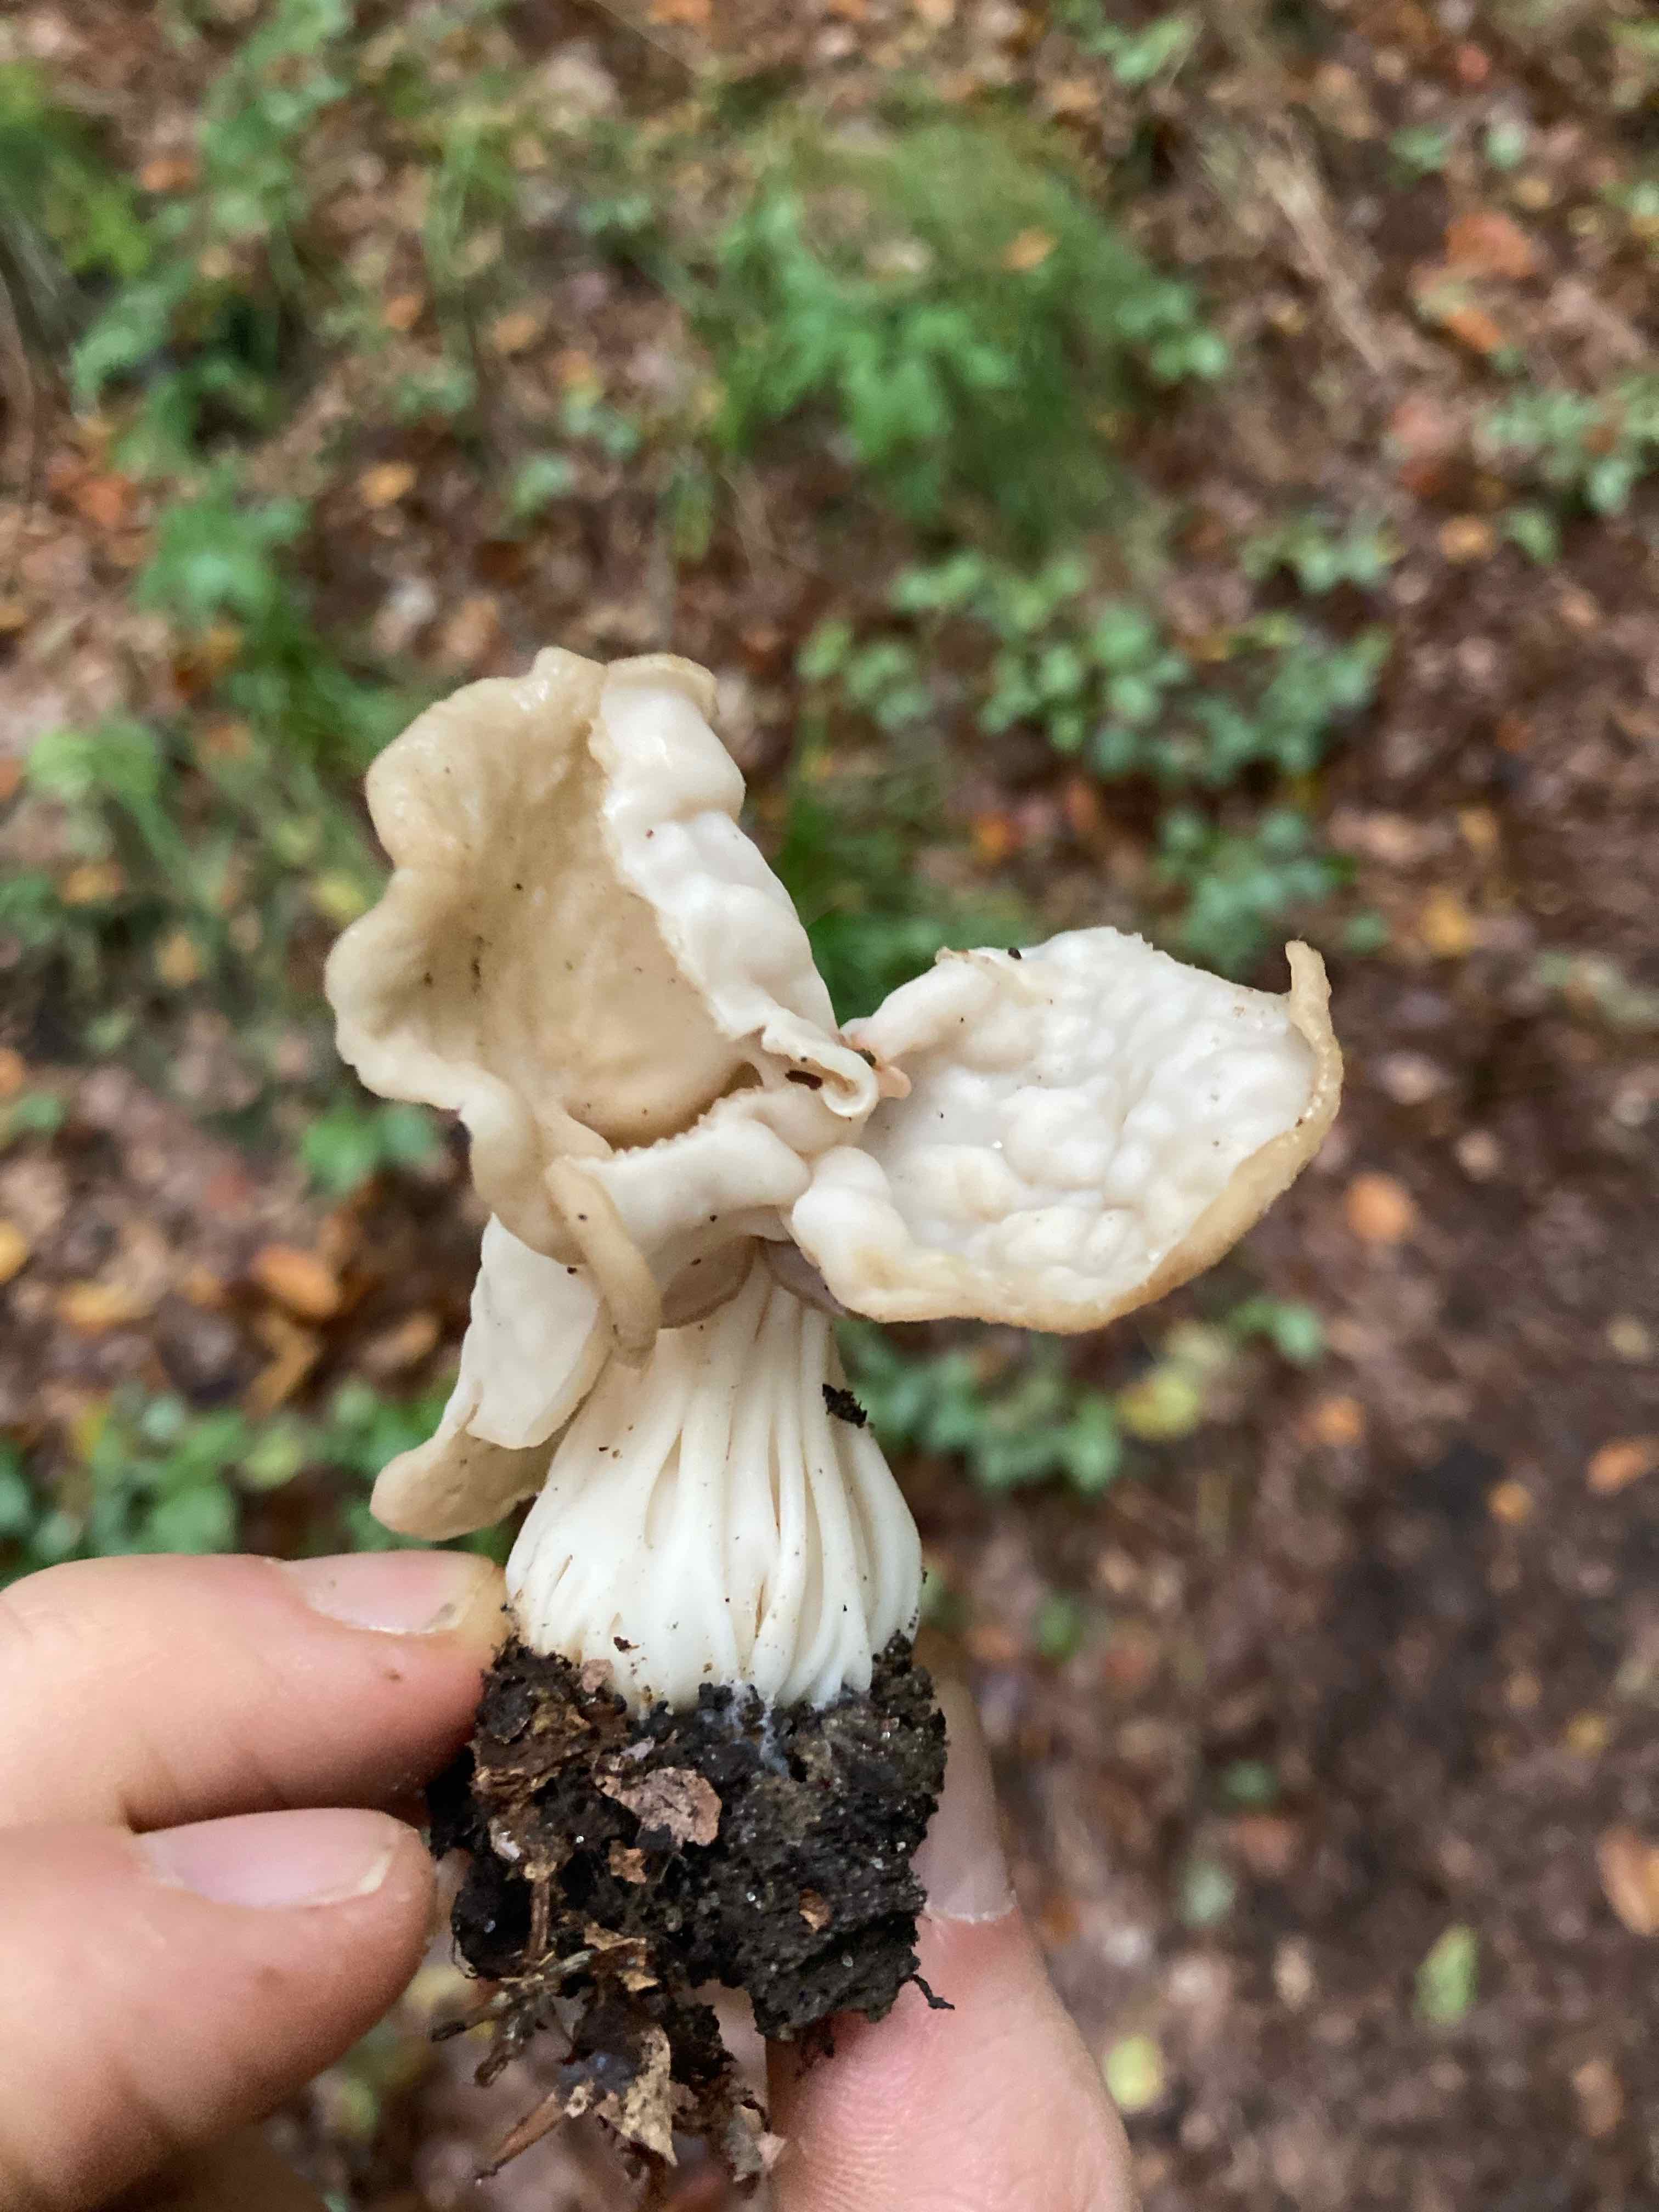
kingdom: Fungi
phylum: Ascomycota
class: Pezizomycetes
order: Pezizales
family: Helvellaceae
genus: Helvella
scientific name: Helvella crispa
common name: kruset foldhat
